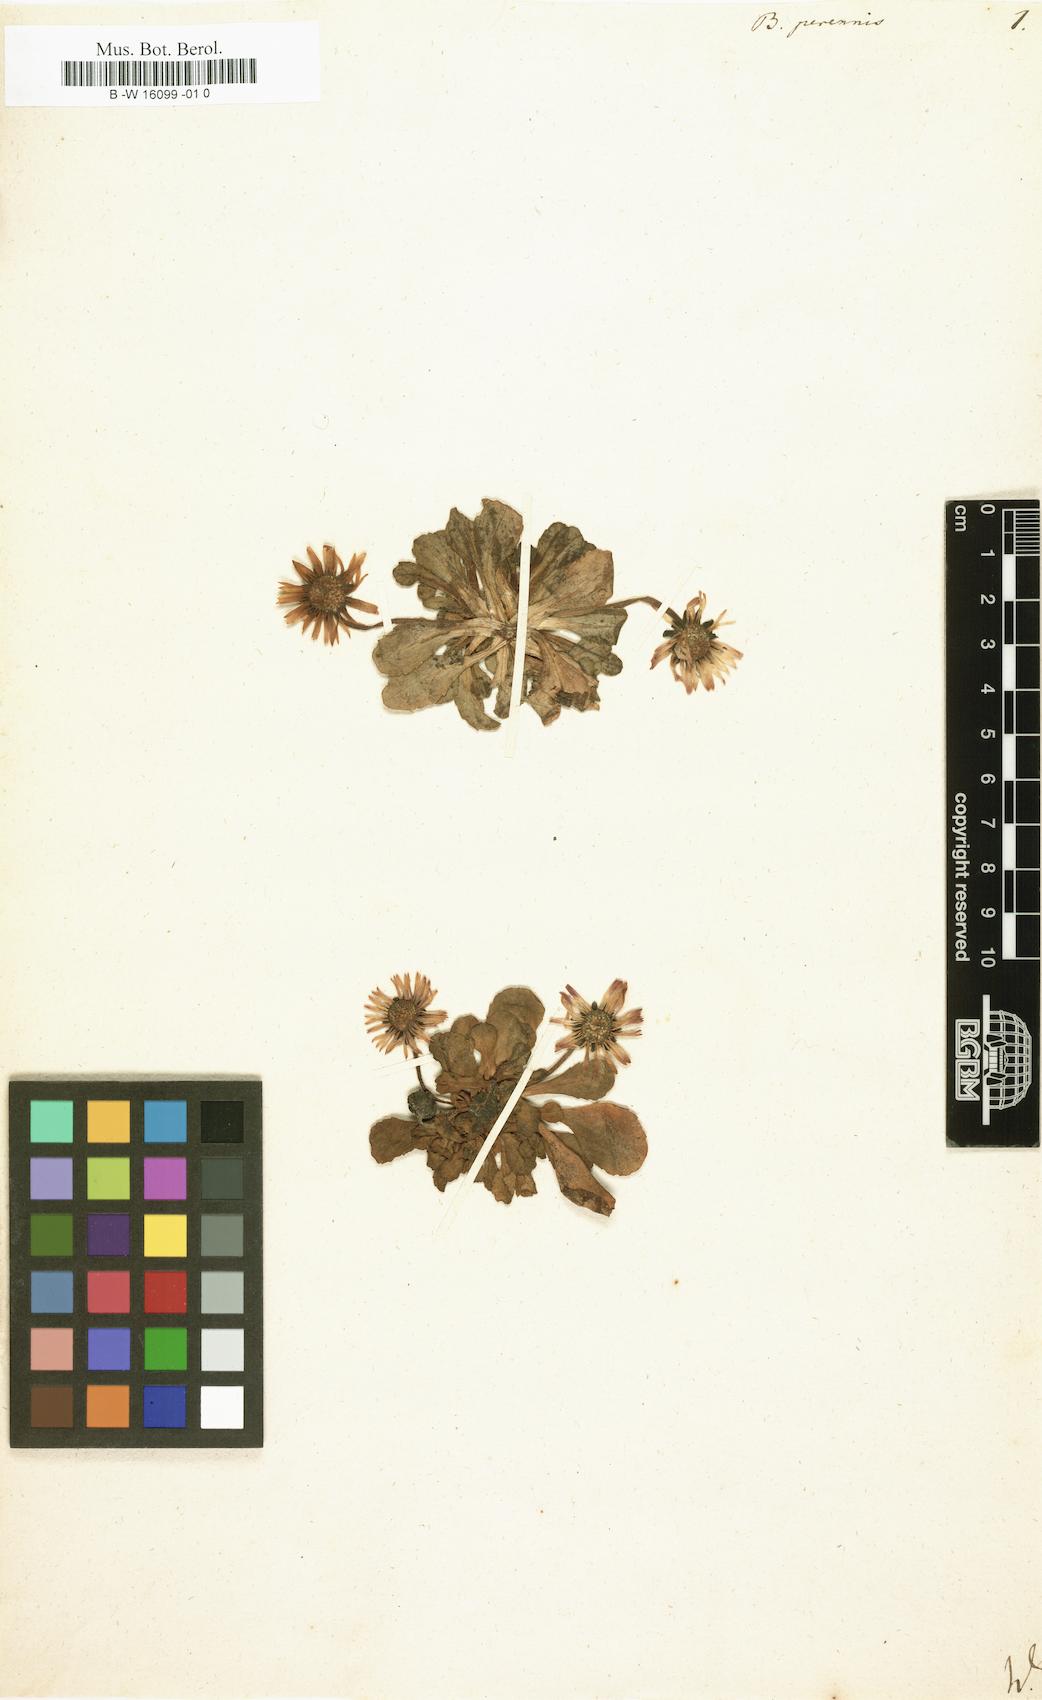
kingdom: Plantae
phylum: Tracheophyta
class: Magnoliopsida
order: Asterales
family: Asteraceae
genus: Bellis
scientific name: Bellis perennis
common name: Lawndaisy
